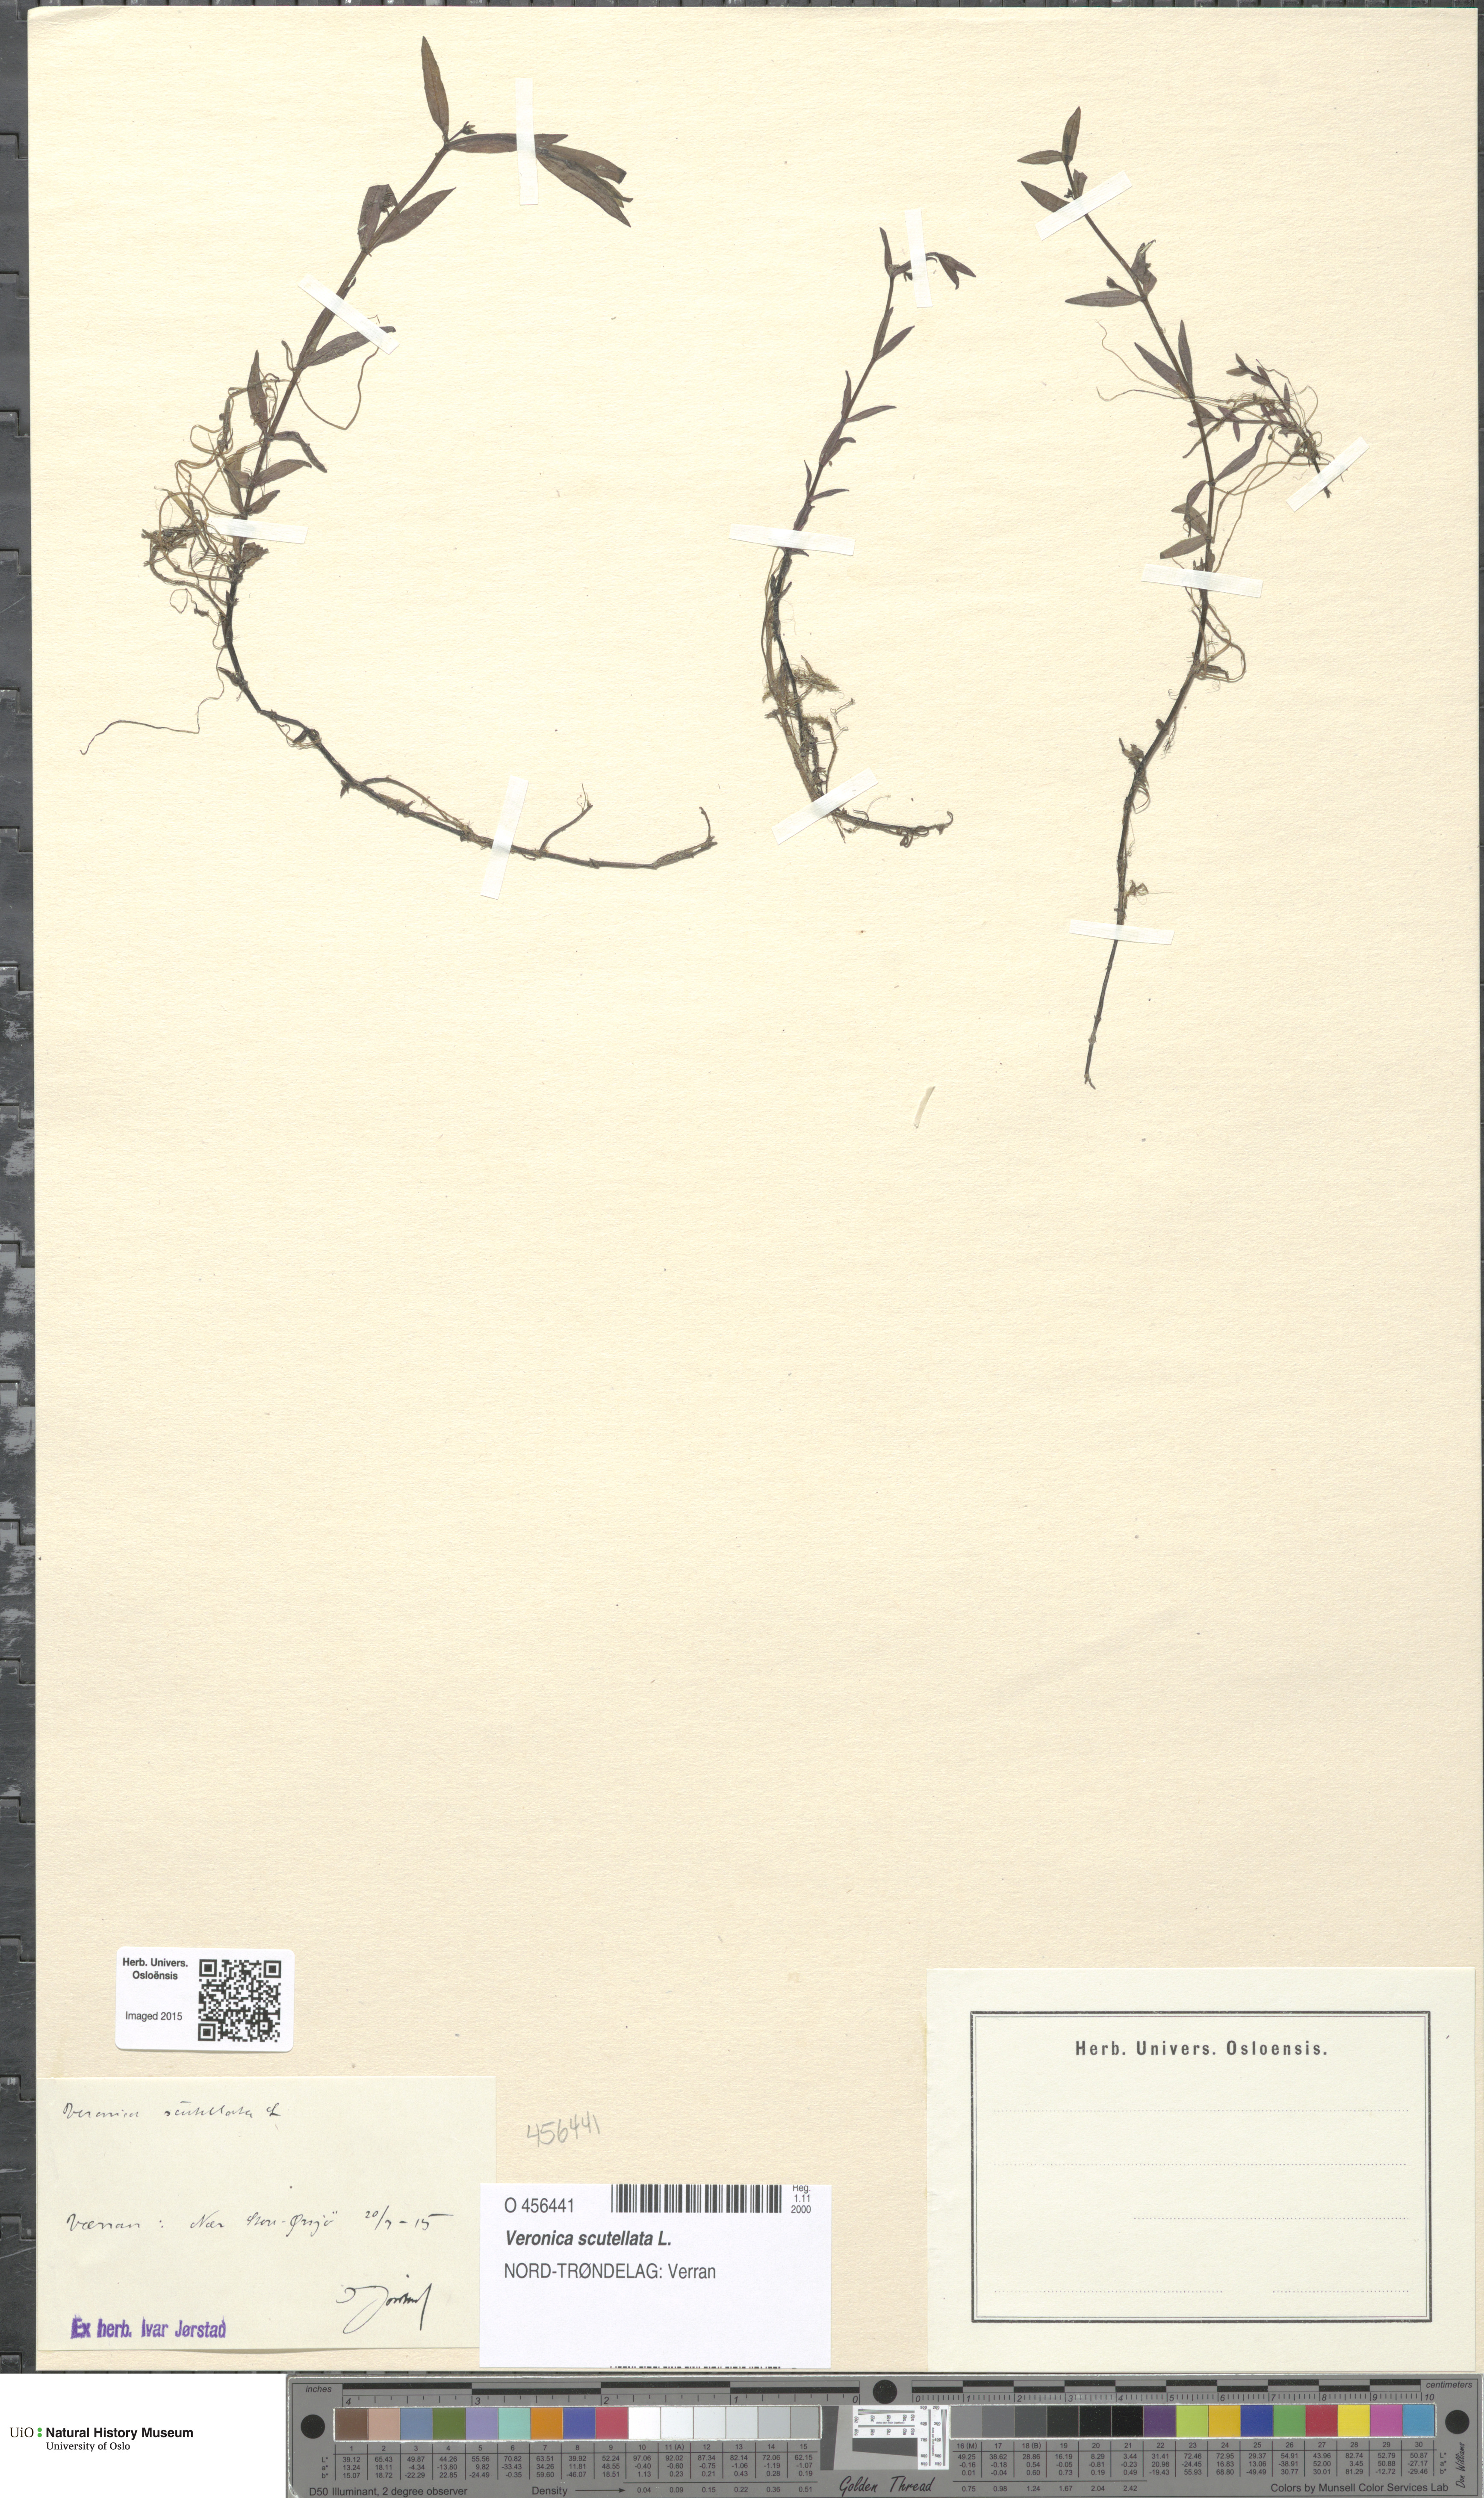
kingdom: Plantae
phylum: Tracheophyta
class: Magnoliopsida
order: Lamiales
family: Plantaginaceae
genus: Veronica
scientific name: Veronica scutellata
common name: Marsh speedwell
